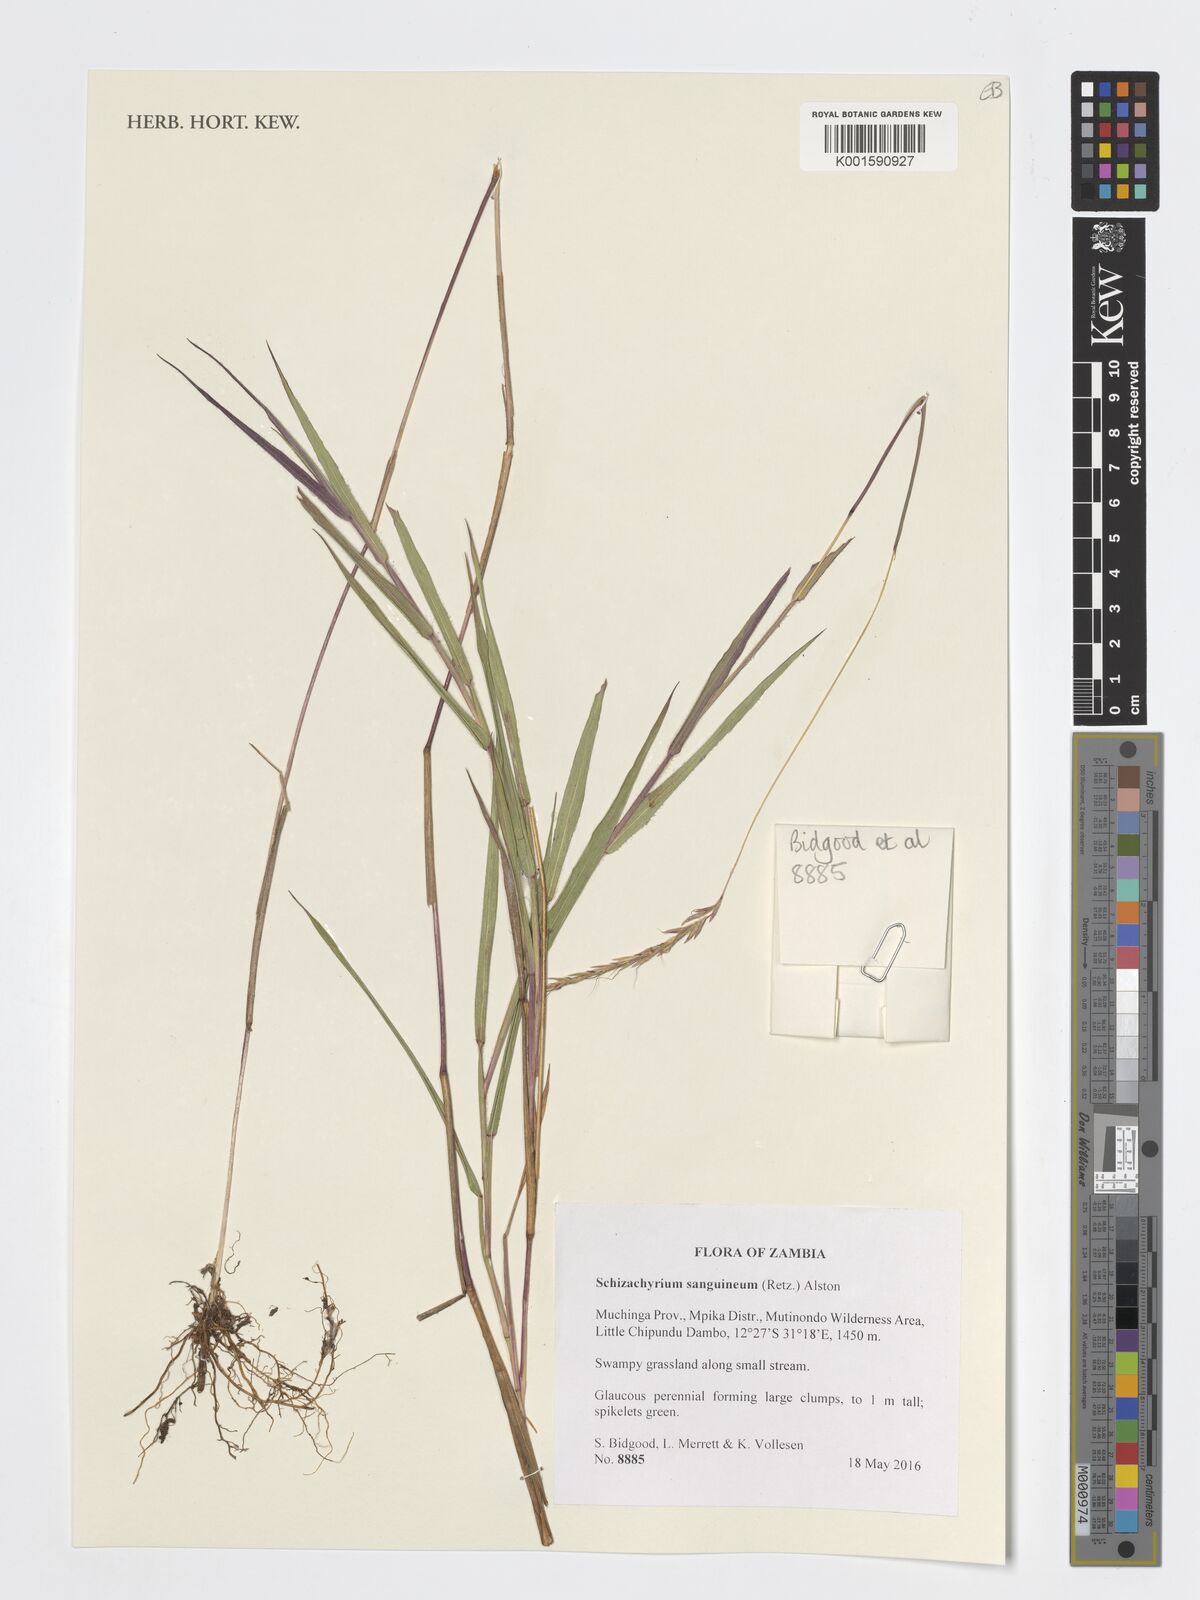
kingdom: Plantae
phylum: Tracheophyta
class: Liliopsida
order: Poales
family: Poaceae
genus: Schizachyrium
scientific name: Schizachyrium sanguineum
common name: Crimson bluestem
